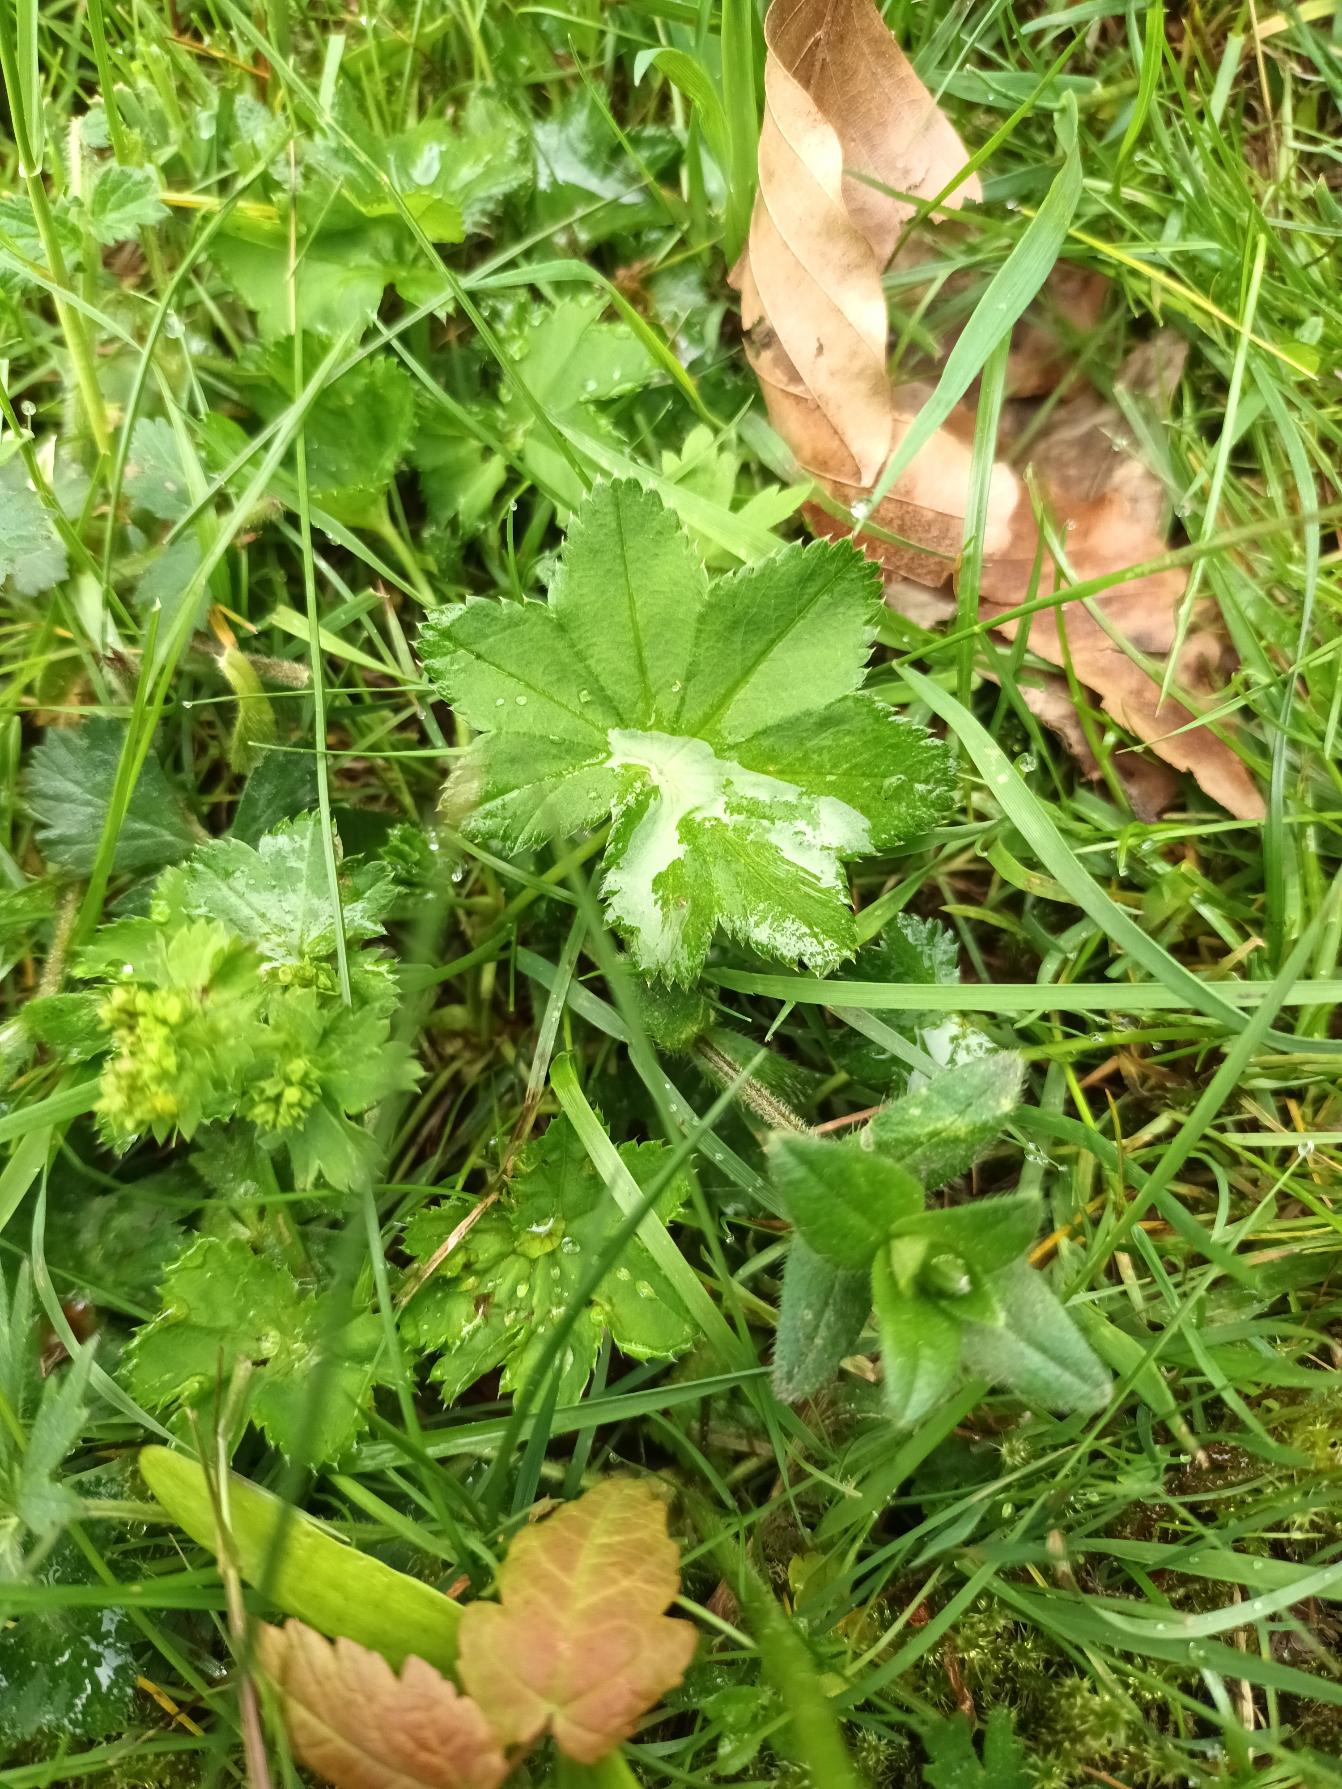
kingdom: Plantae
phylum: Tracheophyta
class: Magnoliopsida
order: Rosales
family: Rosaceae
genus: Alchemilla
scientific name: Alchemilla glabra
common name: Glat løvefod
